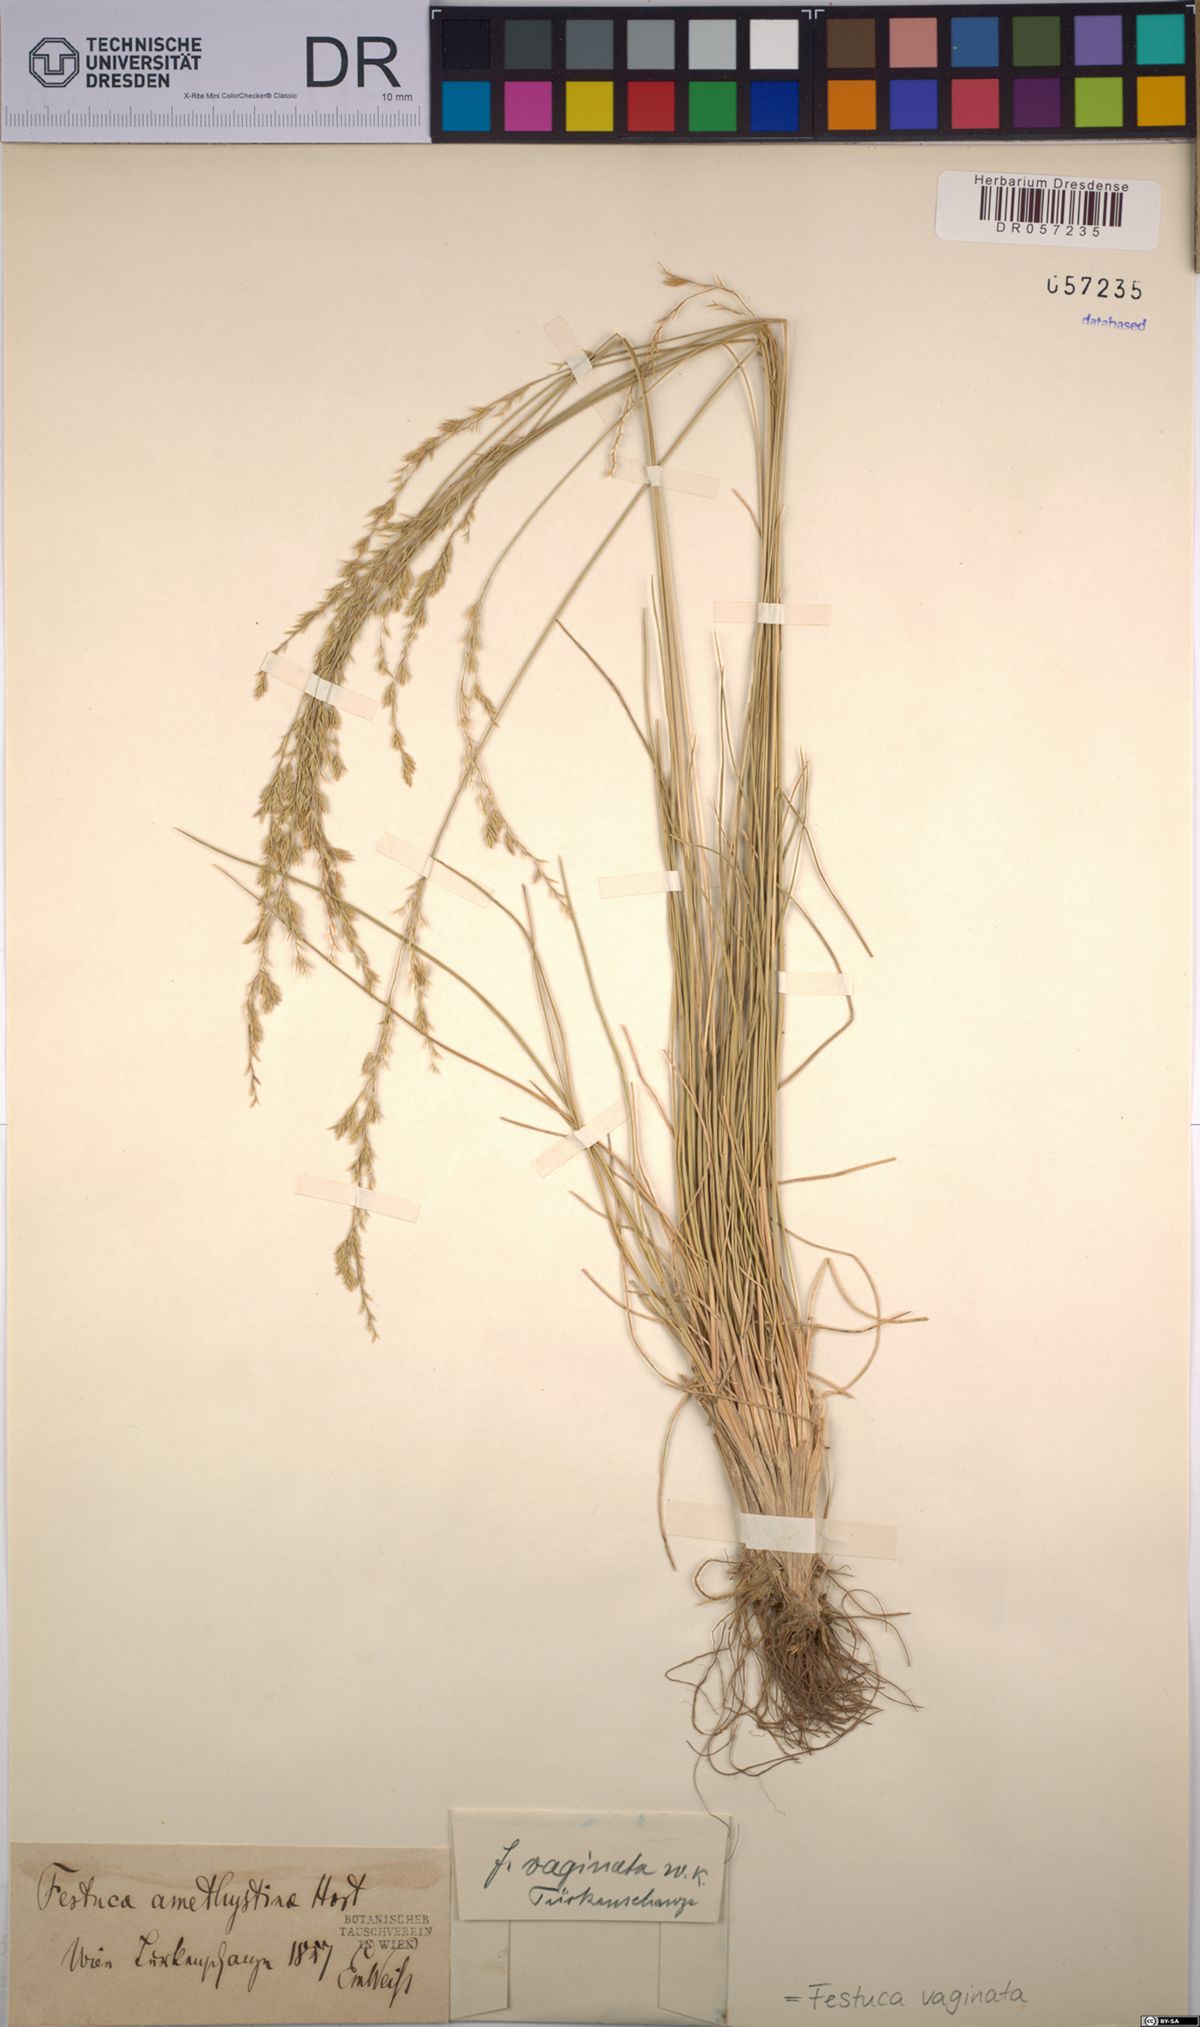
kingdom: Plantae
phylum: Tracheophyta
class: Liliopsida
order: Poales
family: Poaceae
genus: Festuca
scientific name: Festuca vaginata
